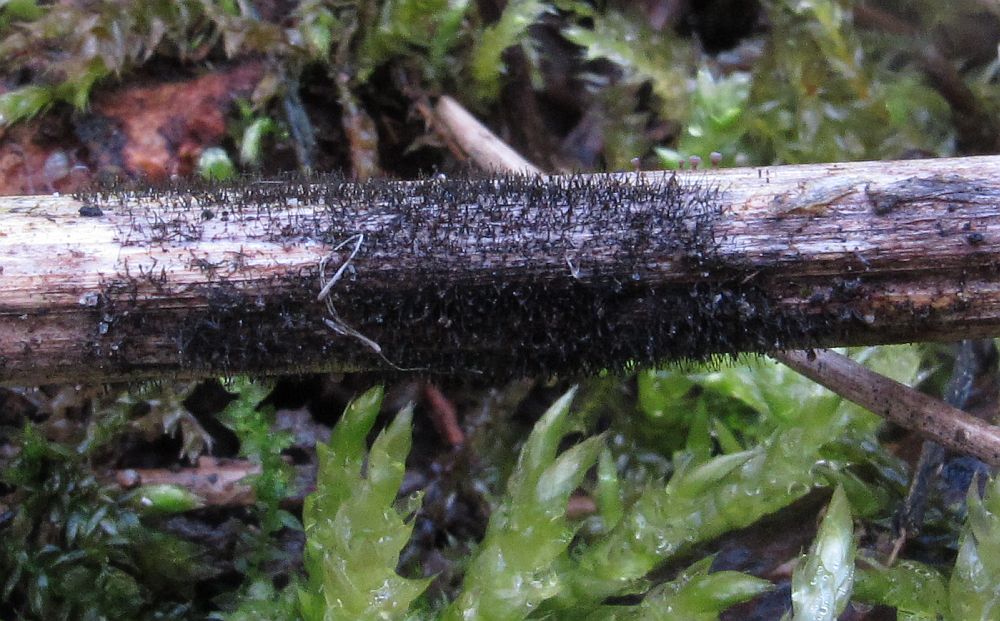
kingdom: Fungi
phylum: Ascomycota
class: Dothideomycetes
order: Pleosporales
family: Periconiaceae
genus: Periconia
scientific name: Periconia cookei
